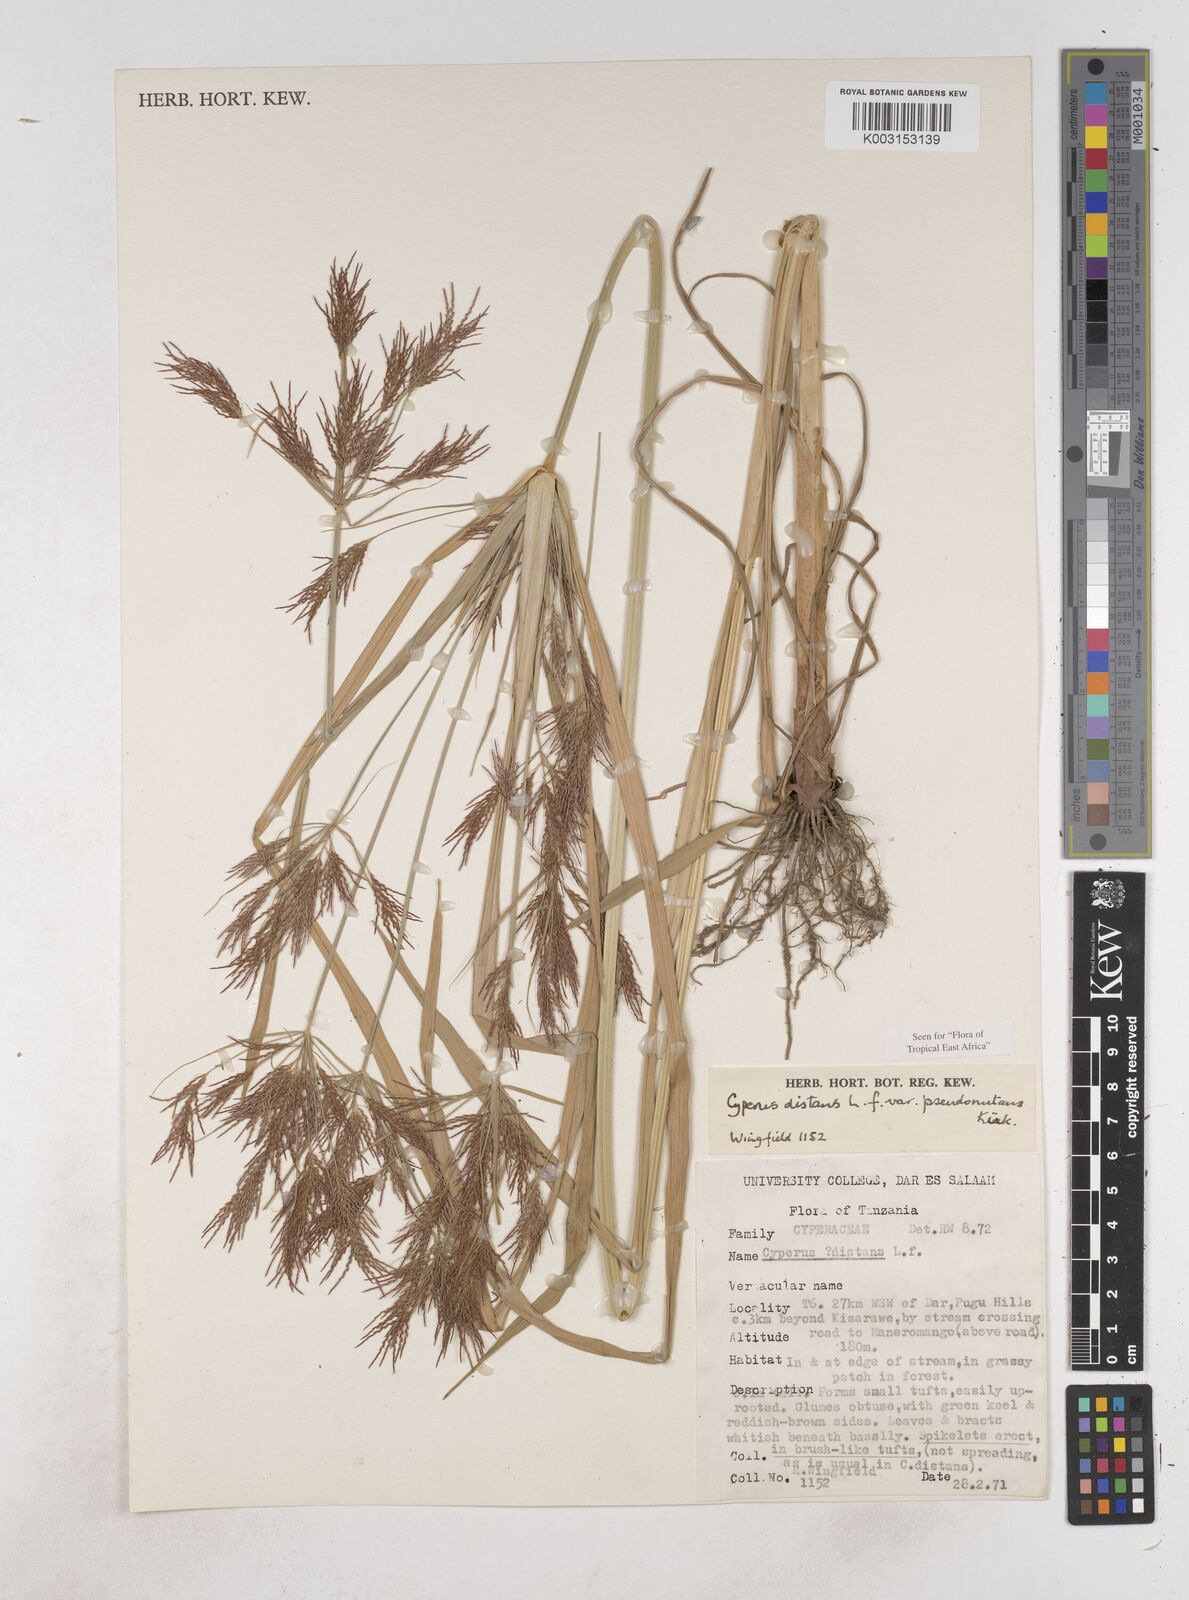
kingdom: Plantae
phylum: Tracheophyta
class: Liliopsida
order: Poales
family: Cyperaceae
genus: Cyperus
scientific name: Cyperus distans
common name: Slender cyperus
